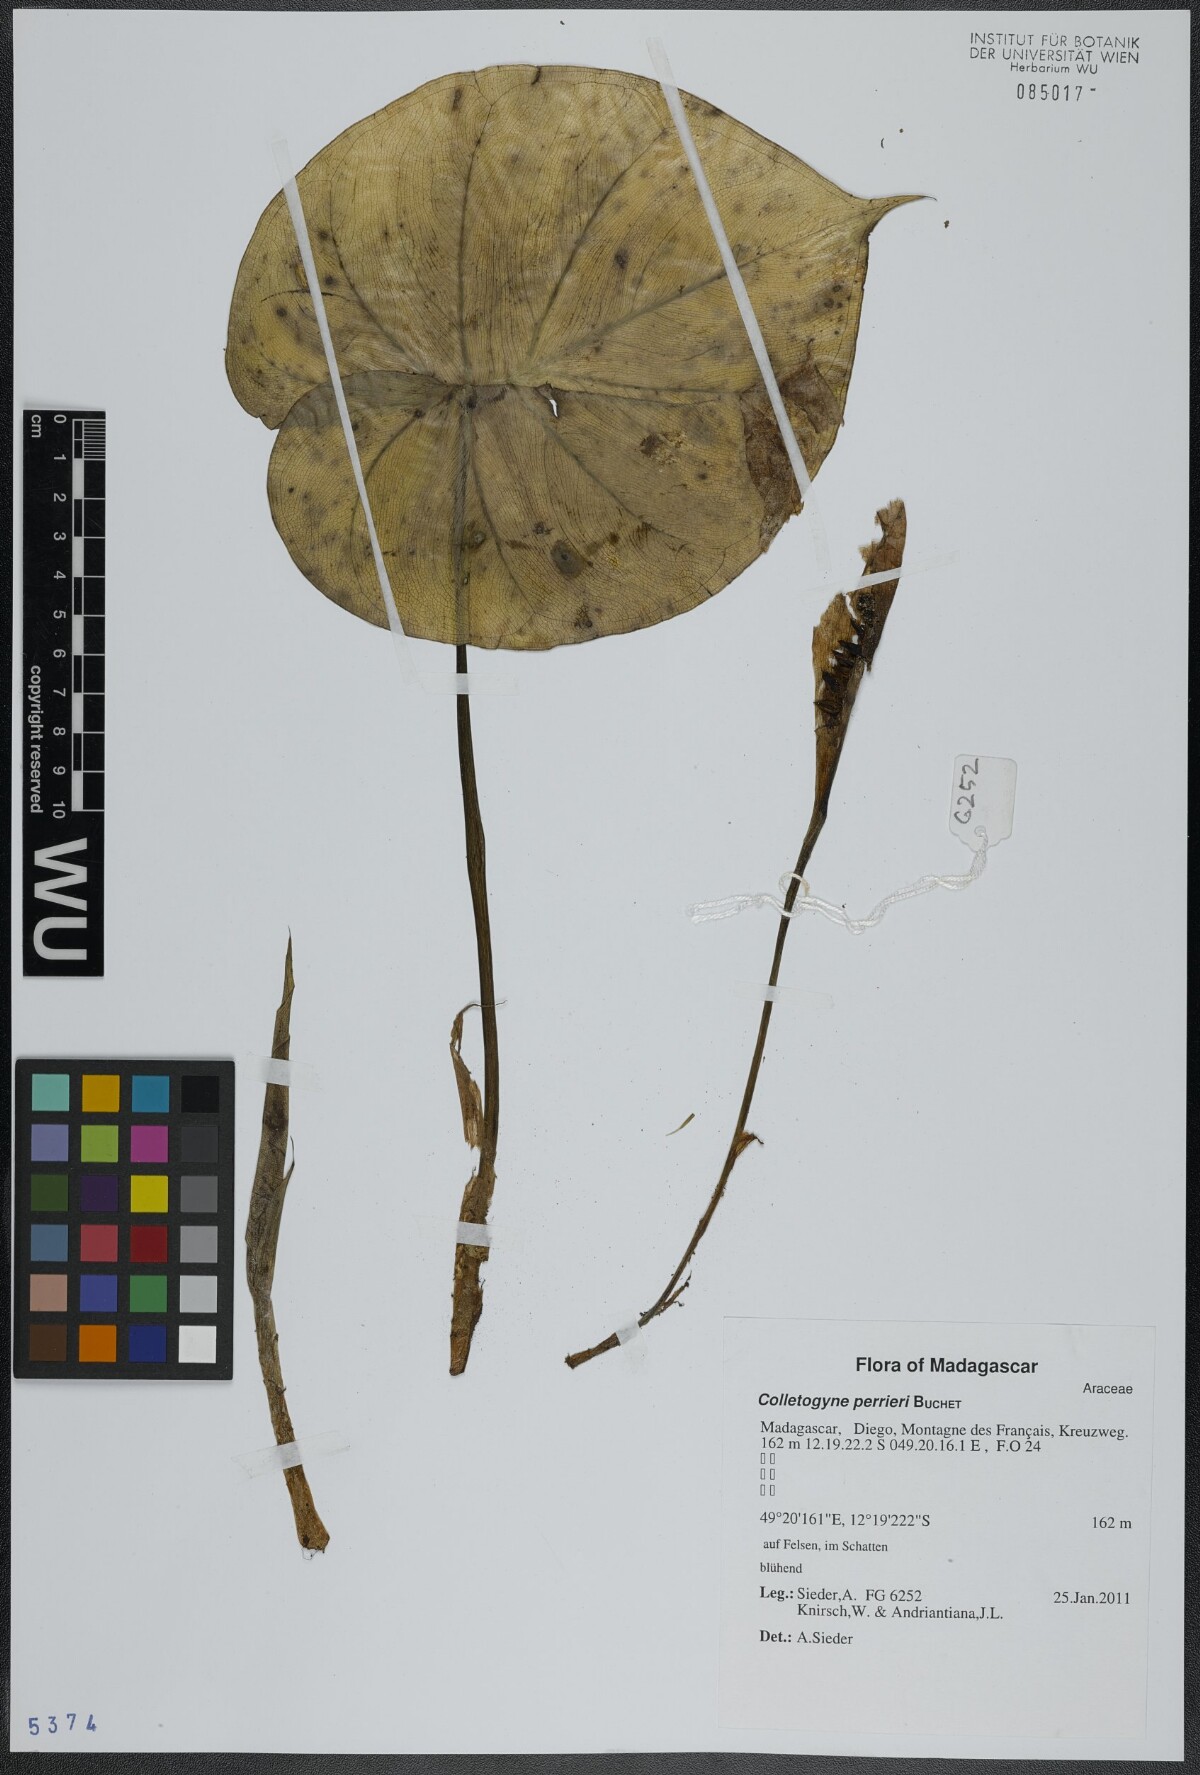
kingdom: Plantae
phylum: Tracheophyta
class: Liliopsida
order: Alismatales
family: Araceae
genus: Colletogyne
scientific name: Colletogyne perrieri
